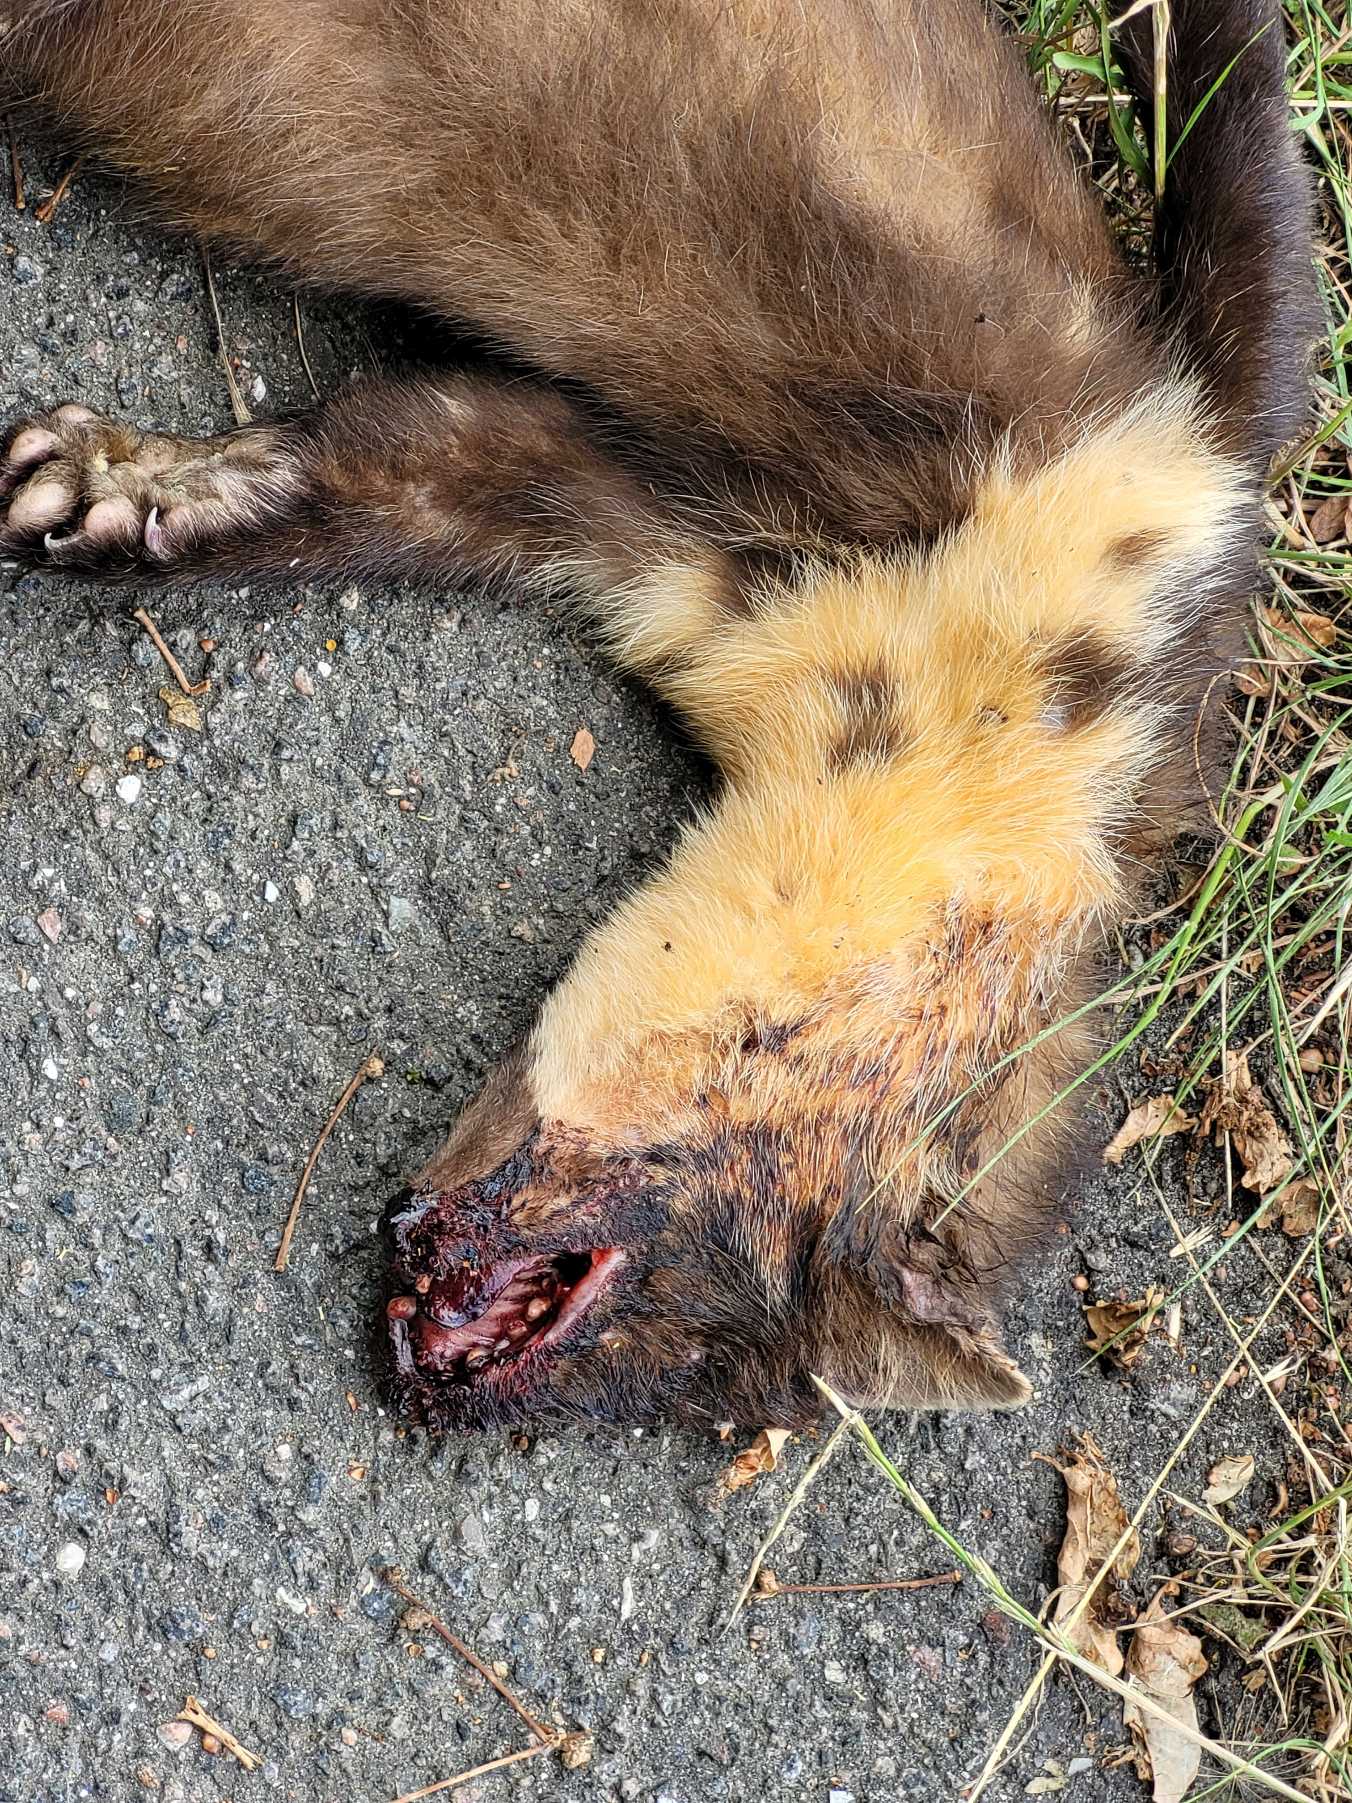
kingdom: Animalia
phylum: Chordata
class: Mammalia
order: Carnivora
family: Mustelidae
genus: Martes
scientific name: Martes martes
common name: Skovmår
